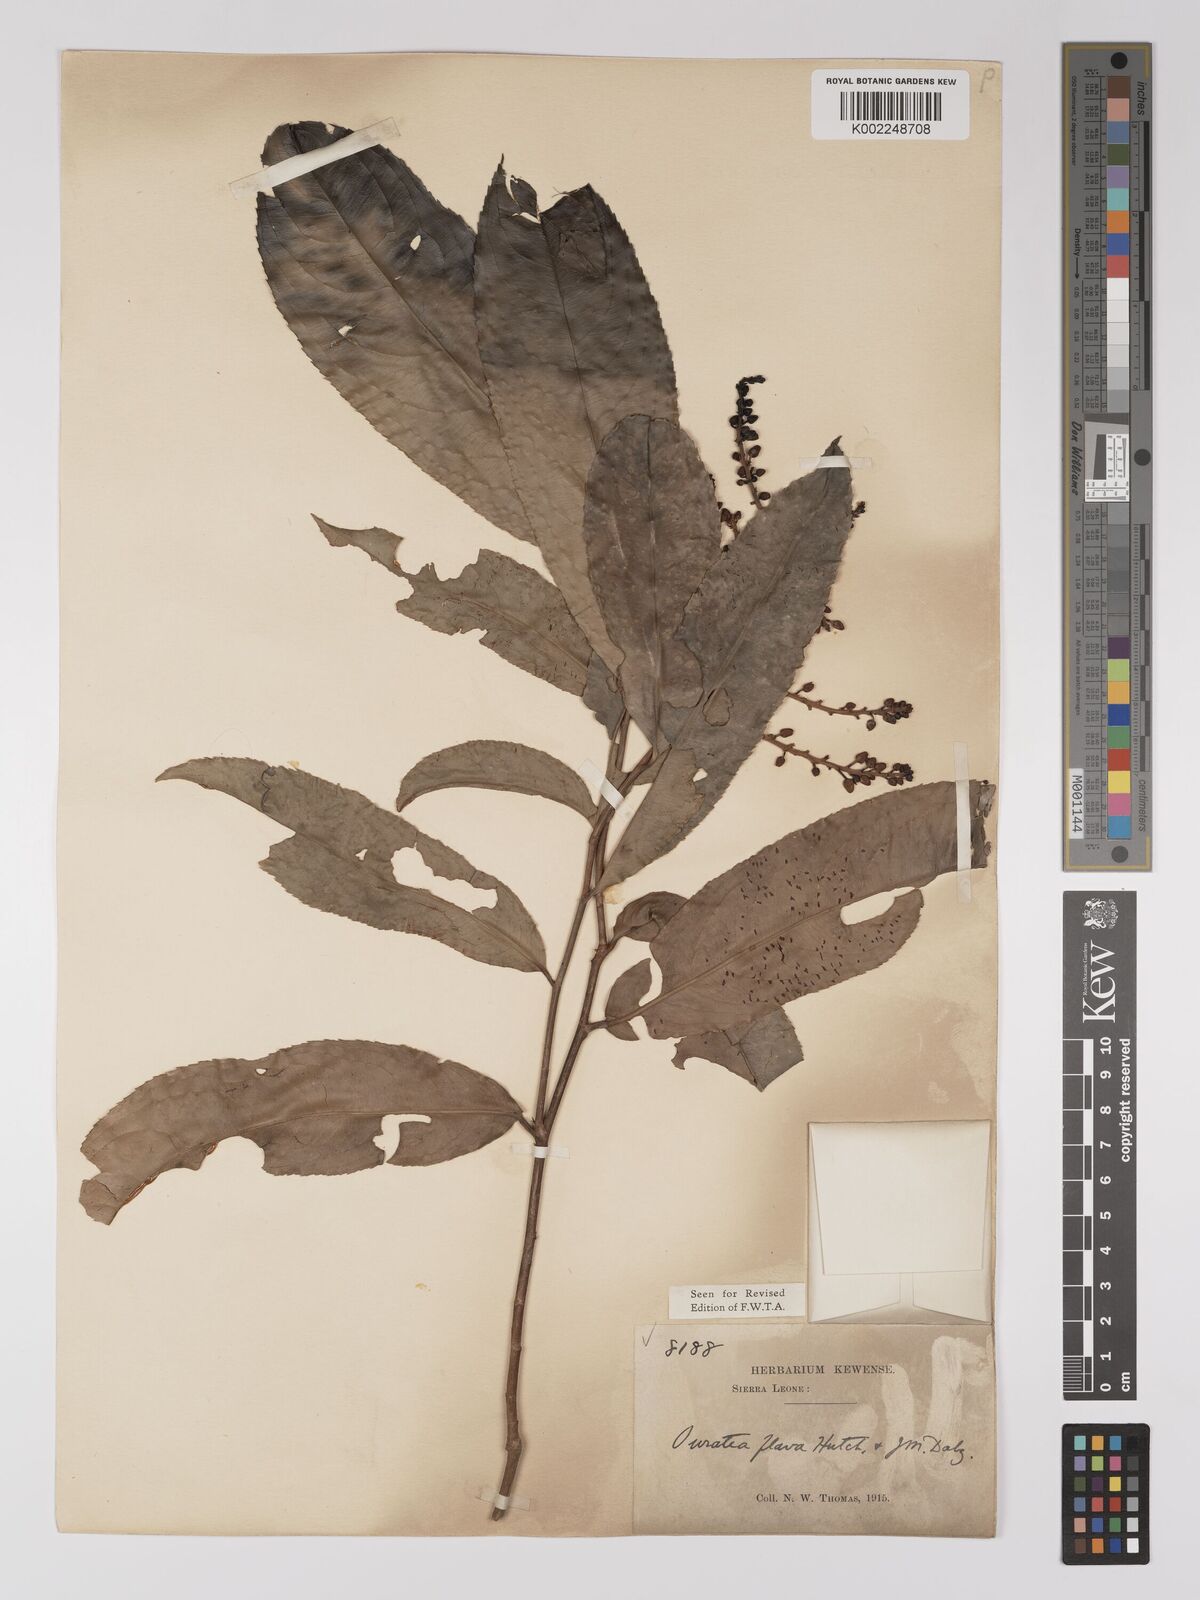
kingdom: Plantae
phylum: Tracheophyta
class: Magnoliopsida
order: Malpighiales
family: Ochnaceae
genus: Campylospermum
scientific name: Campylospermum flavum
